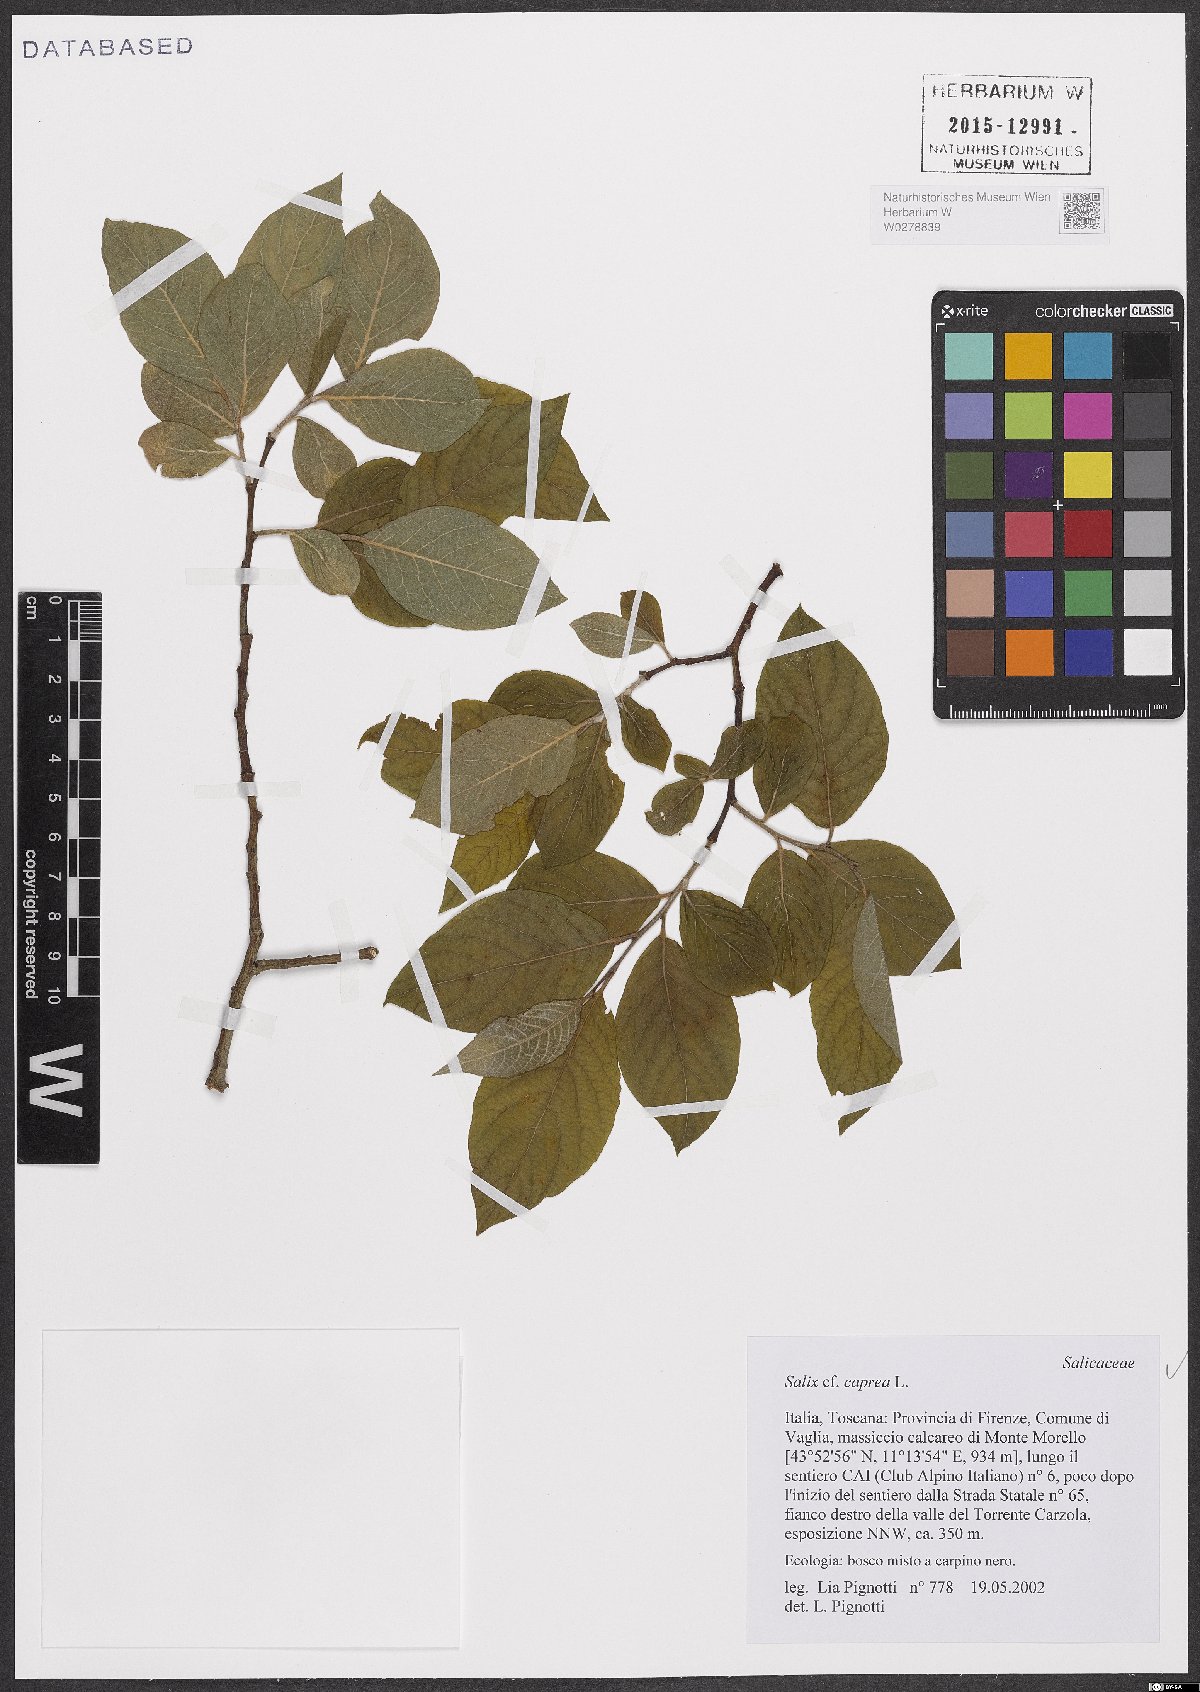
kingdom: Plantae
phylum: Tracheophyta
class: Magnoliopsida
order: Malpighiales
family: Salicaceae
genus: Salix
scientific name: Salix caprea
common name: Goat willow
